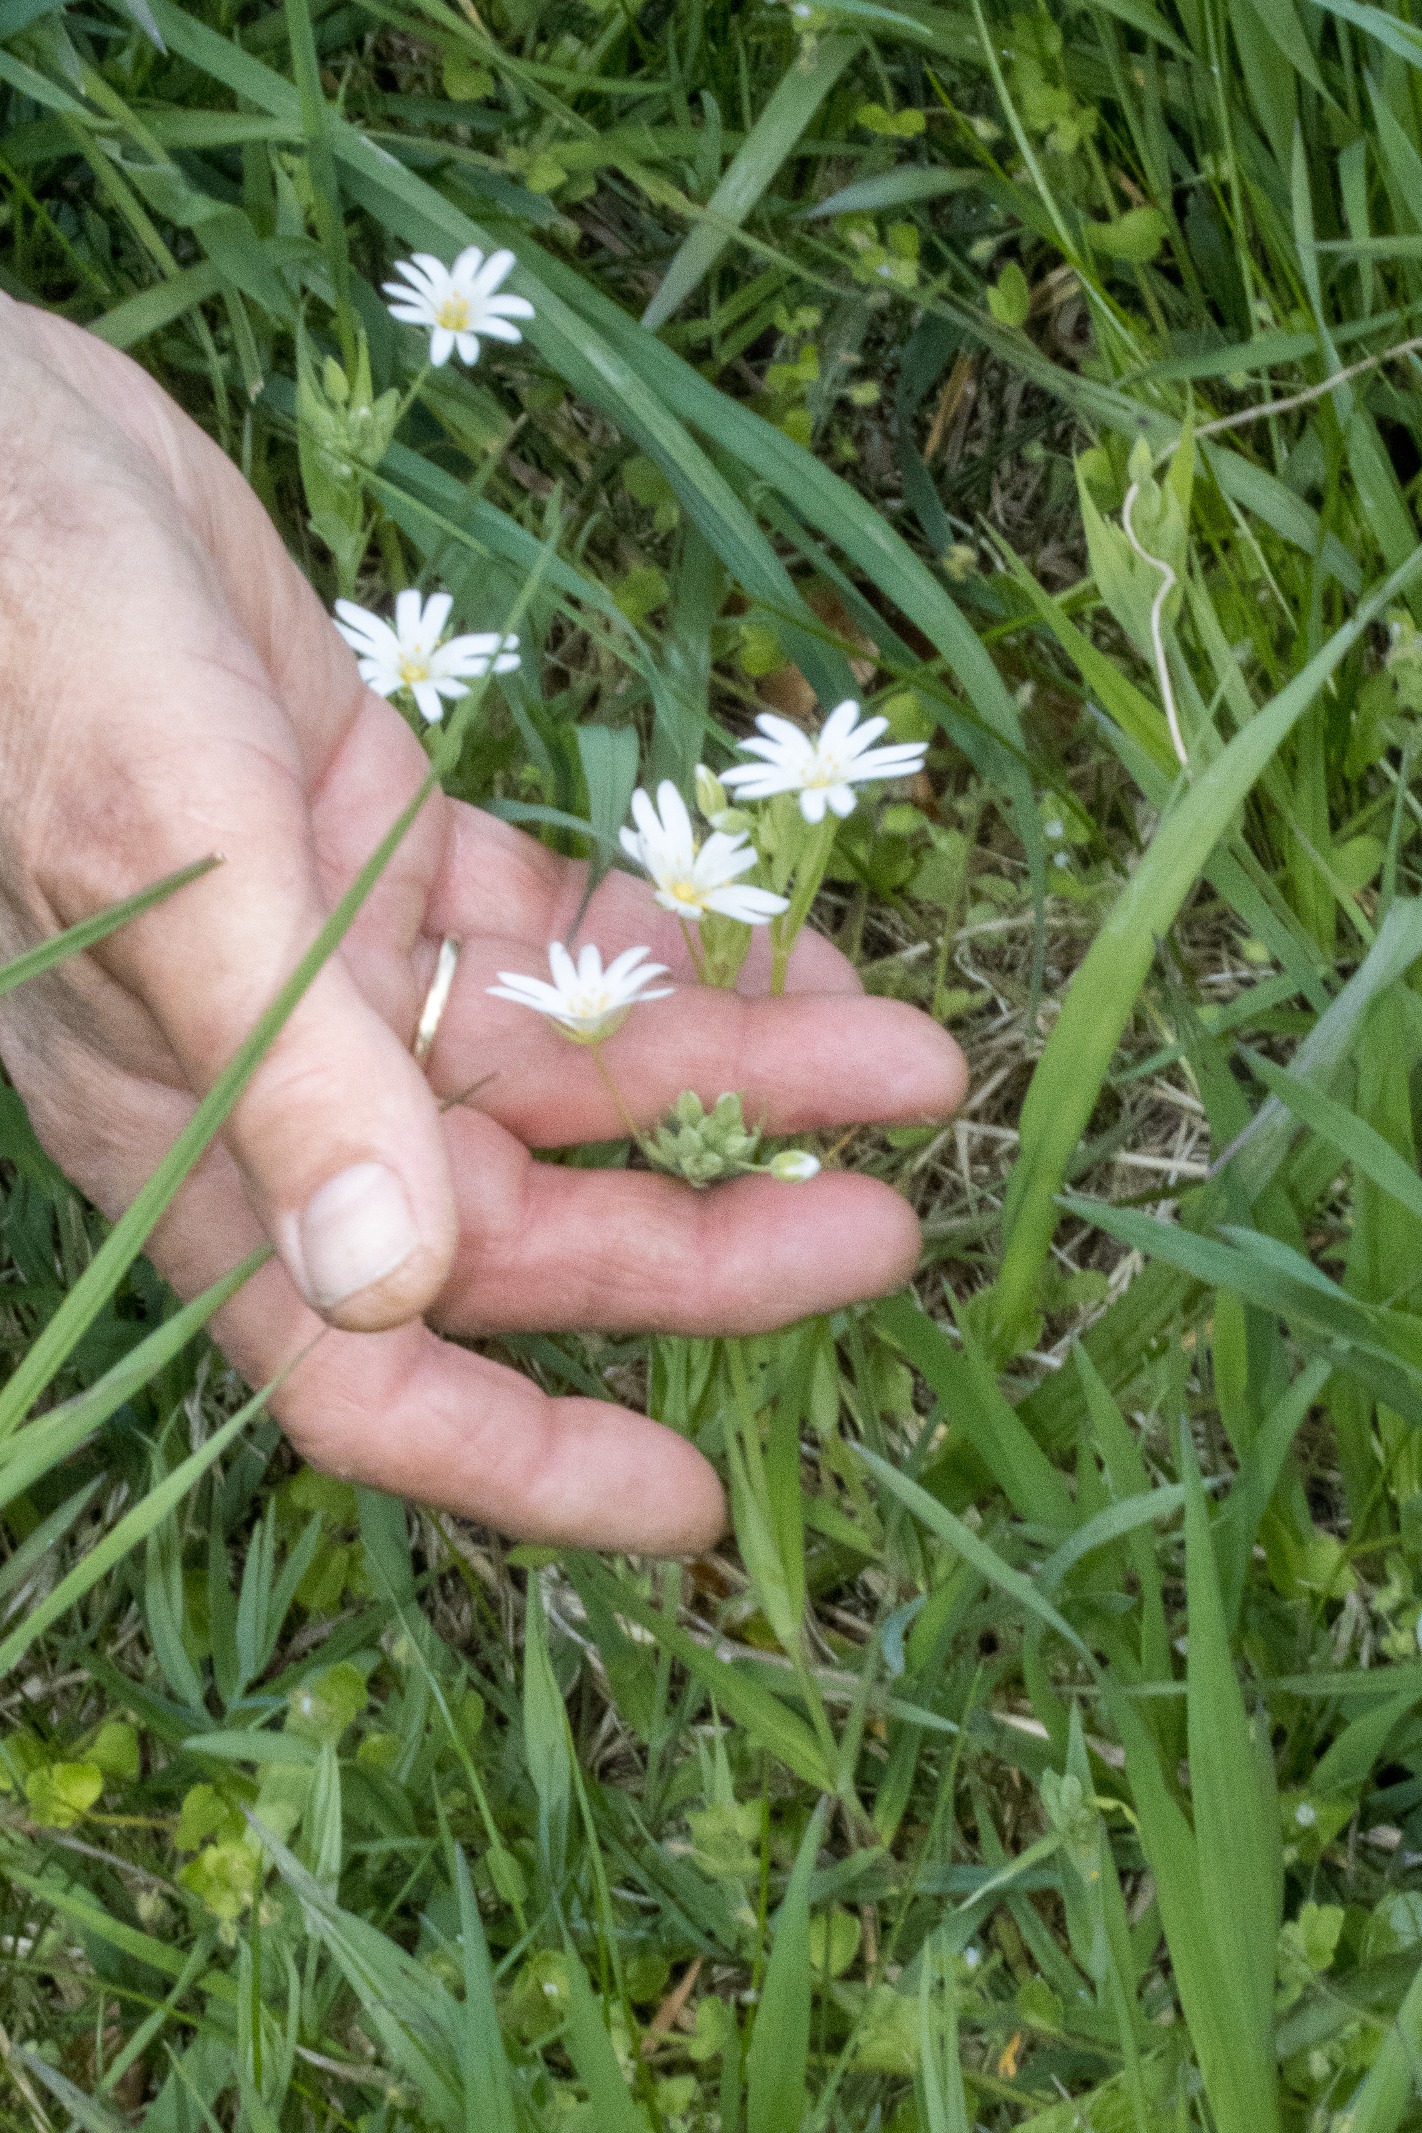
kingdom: Plantae
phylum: Tracheophyta
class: Magnoliopsida
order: Caryophyllales
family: Caryophyllaceae
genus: Rabelera
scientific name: Rabelera holostea
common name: Stor fladstjerne
